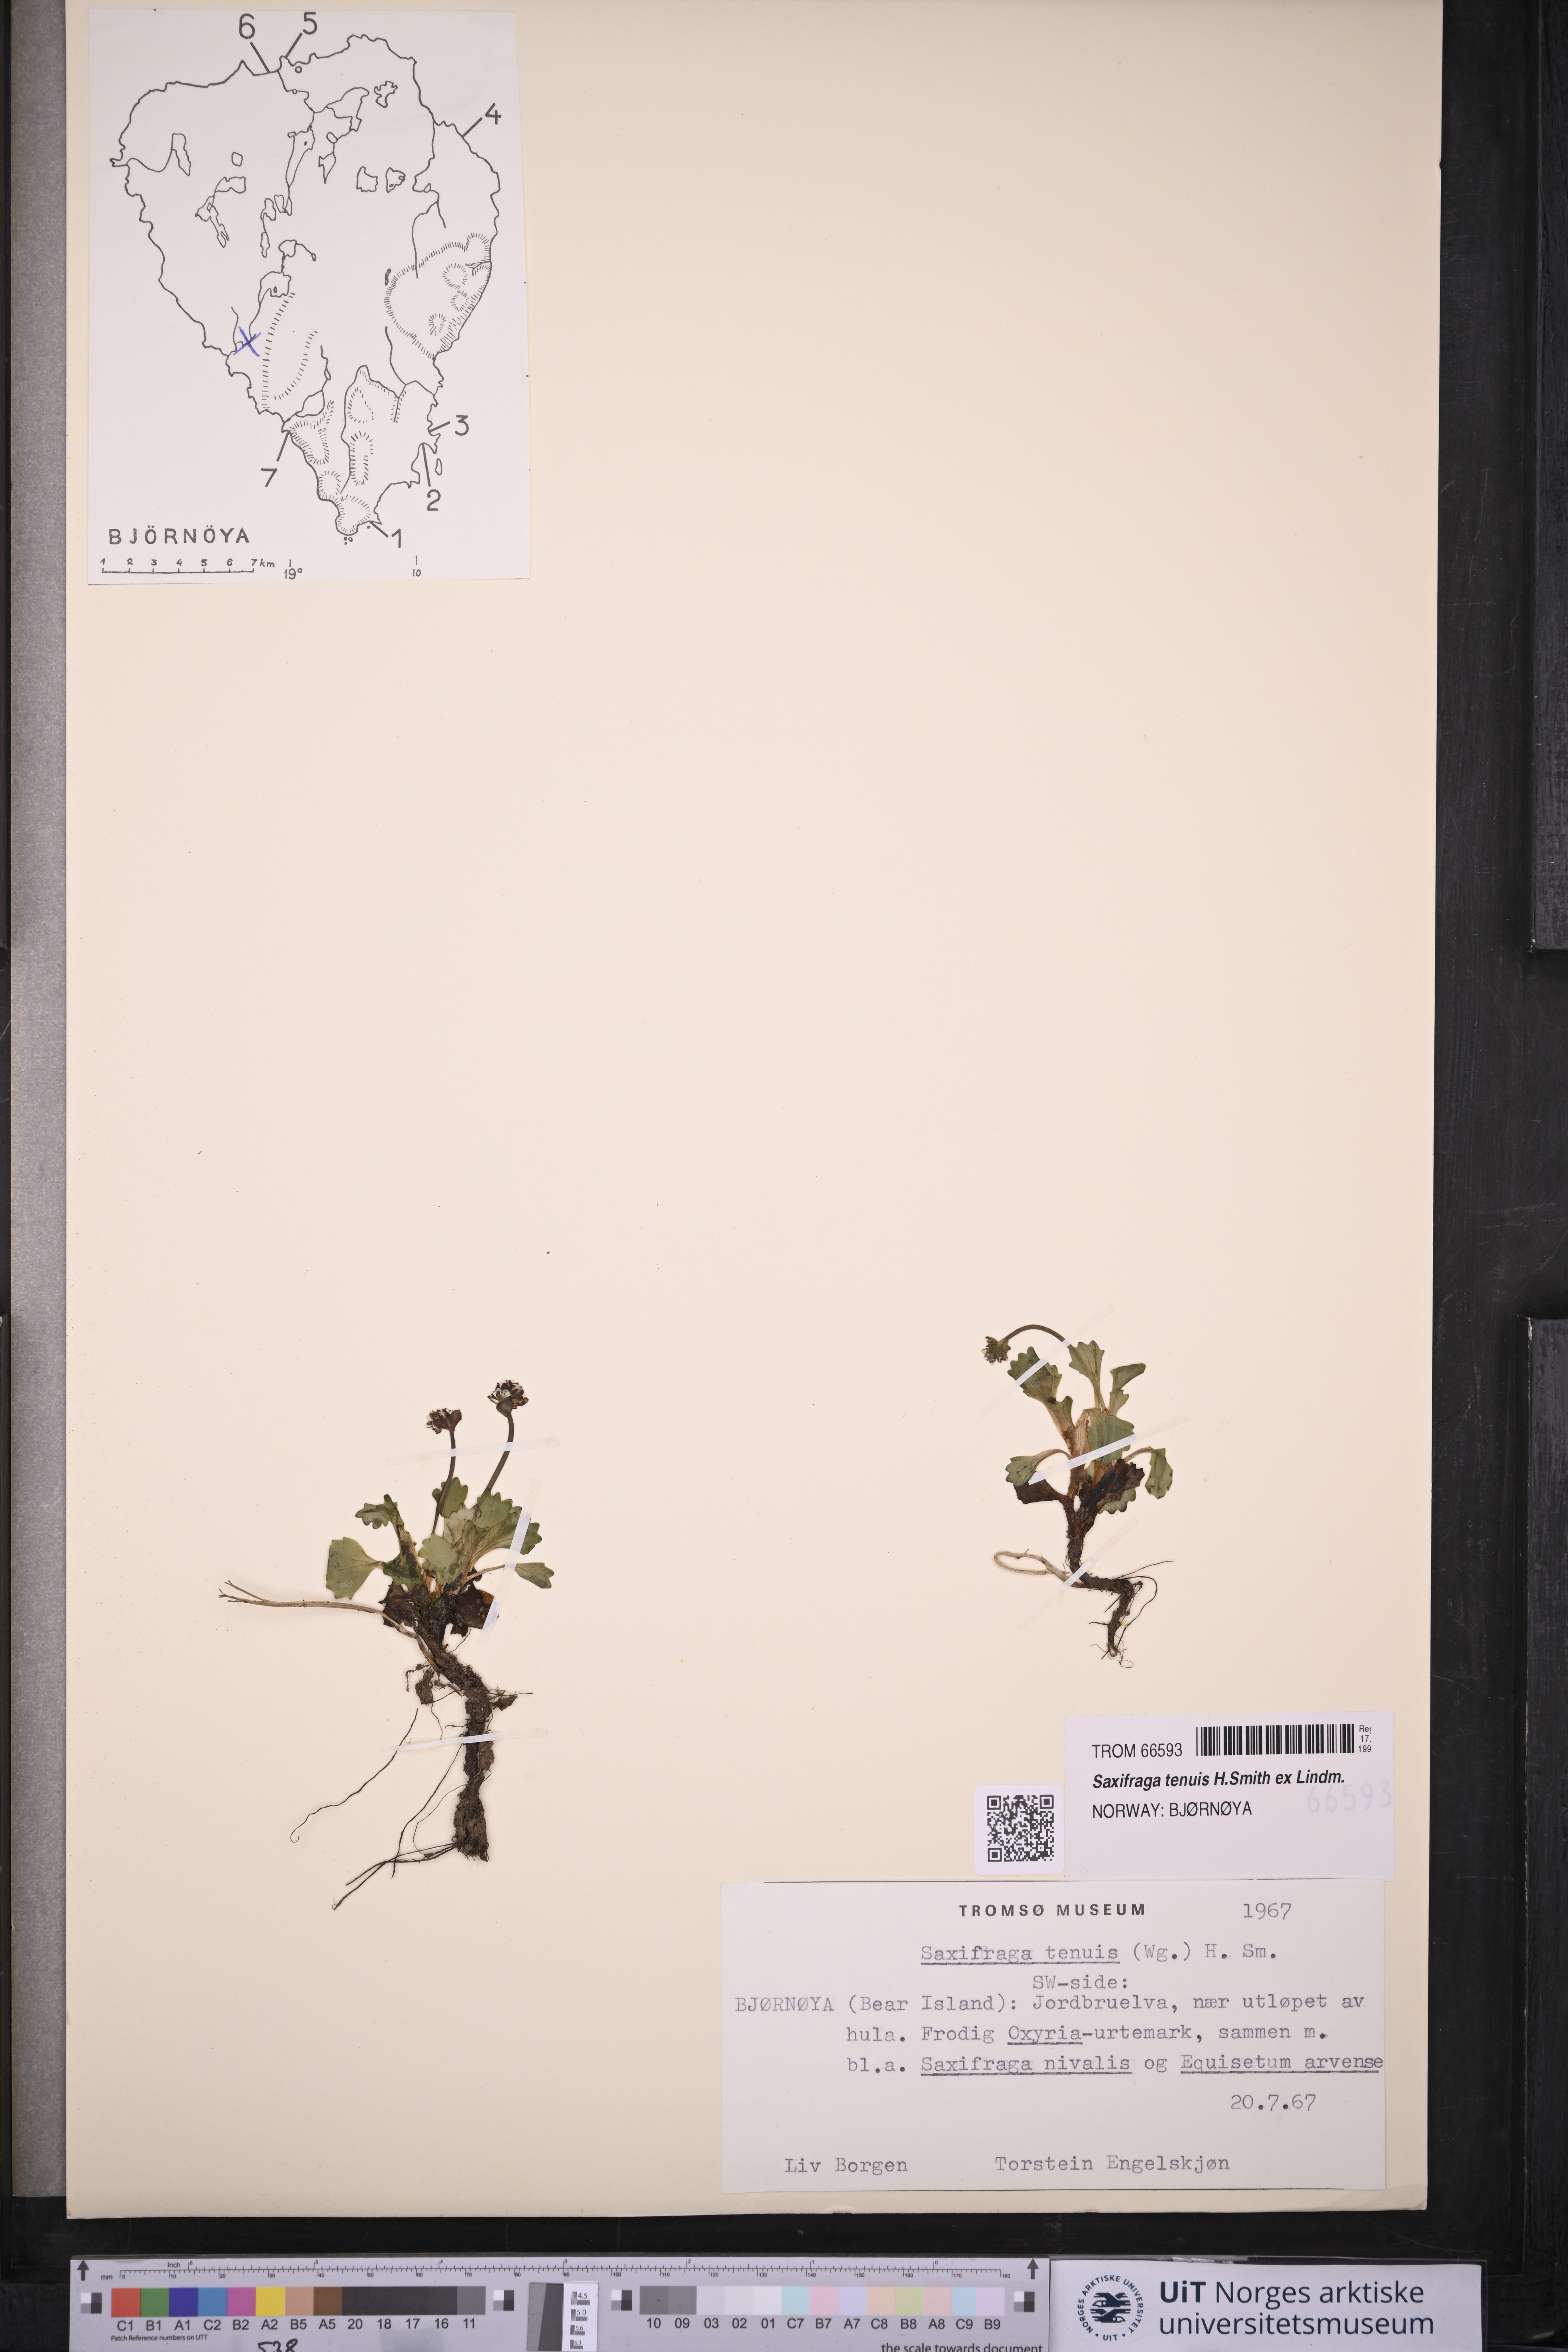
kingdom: Plantae
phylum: Tracheophyta
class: Magnoliopsida
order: Saxifragales
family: Saxifragaceae
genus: Micranthes
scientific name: Micranthes tenuis
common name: Ottertail pass saxifrage
